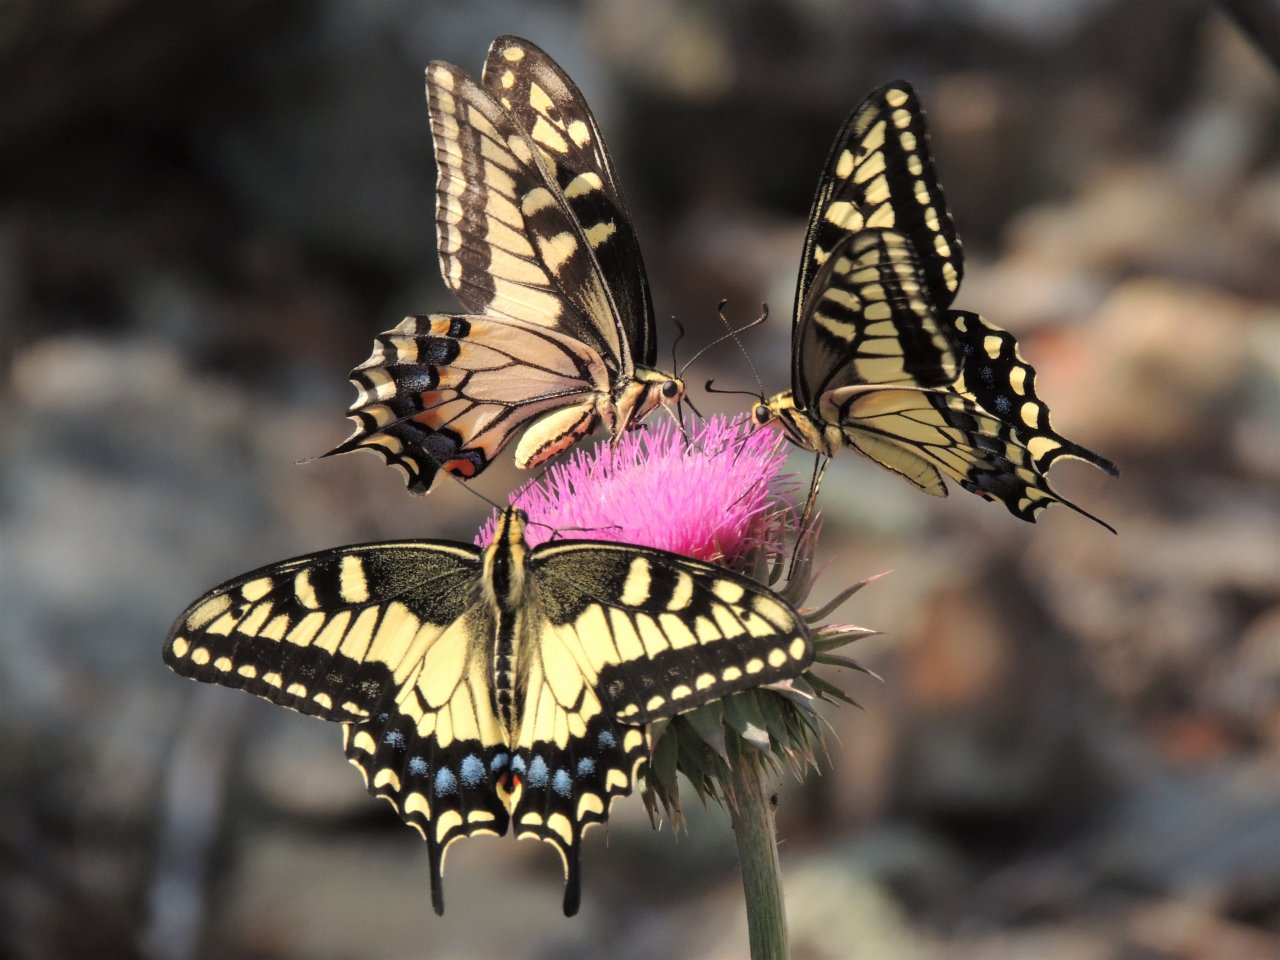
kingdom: Animalia
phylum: Arthropoda
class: Insecta
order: Lepidoptera
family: Papilionidae
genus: Papilio
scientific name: Papilio machaon
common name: Old World Swallowtail
